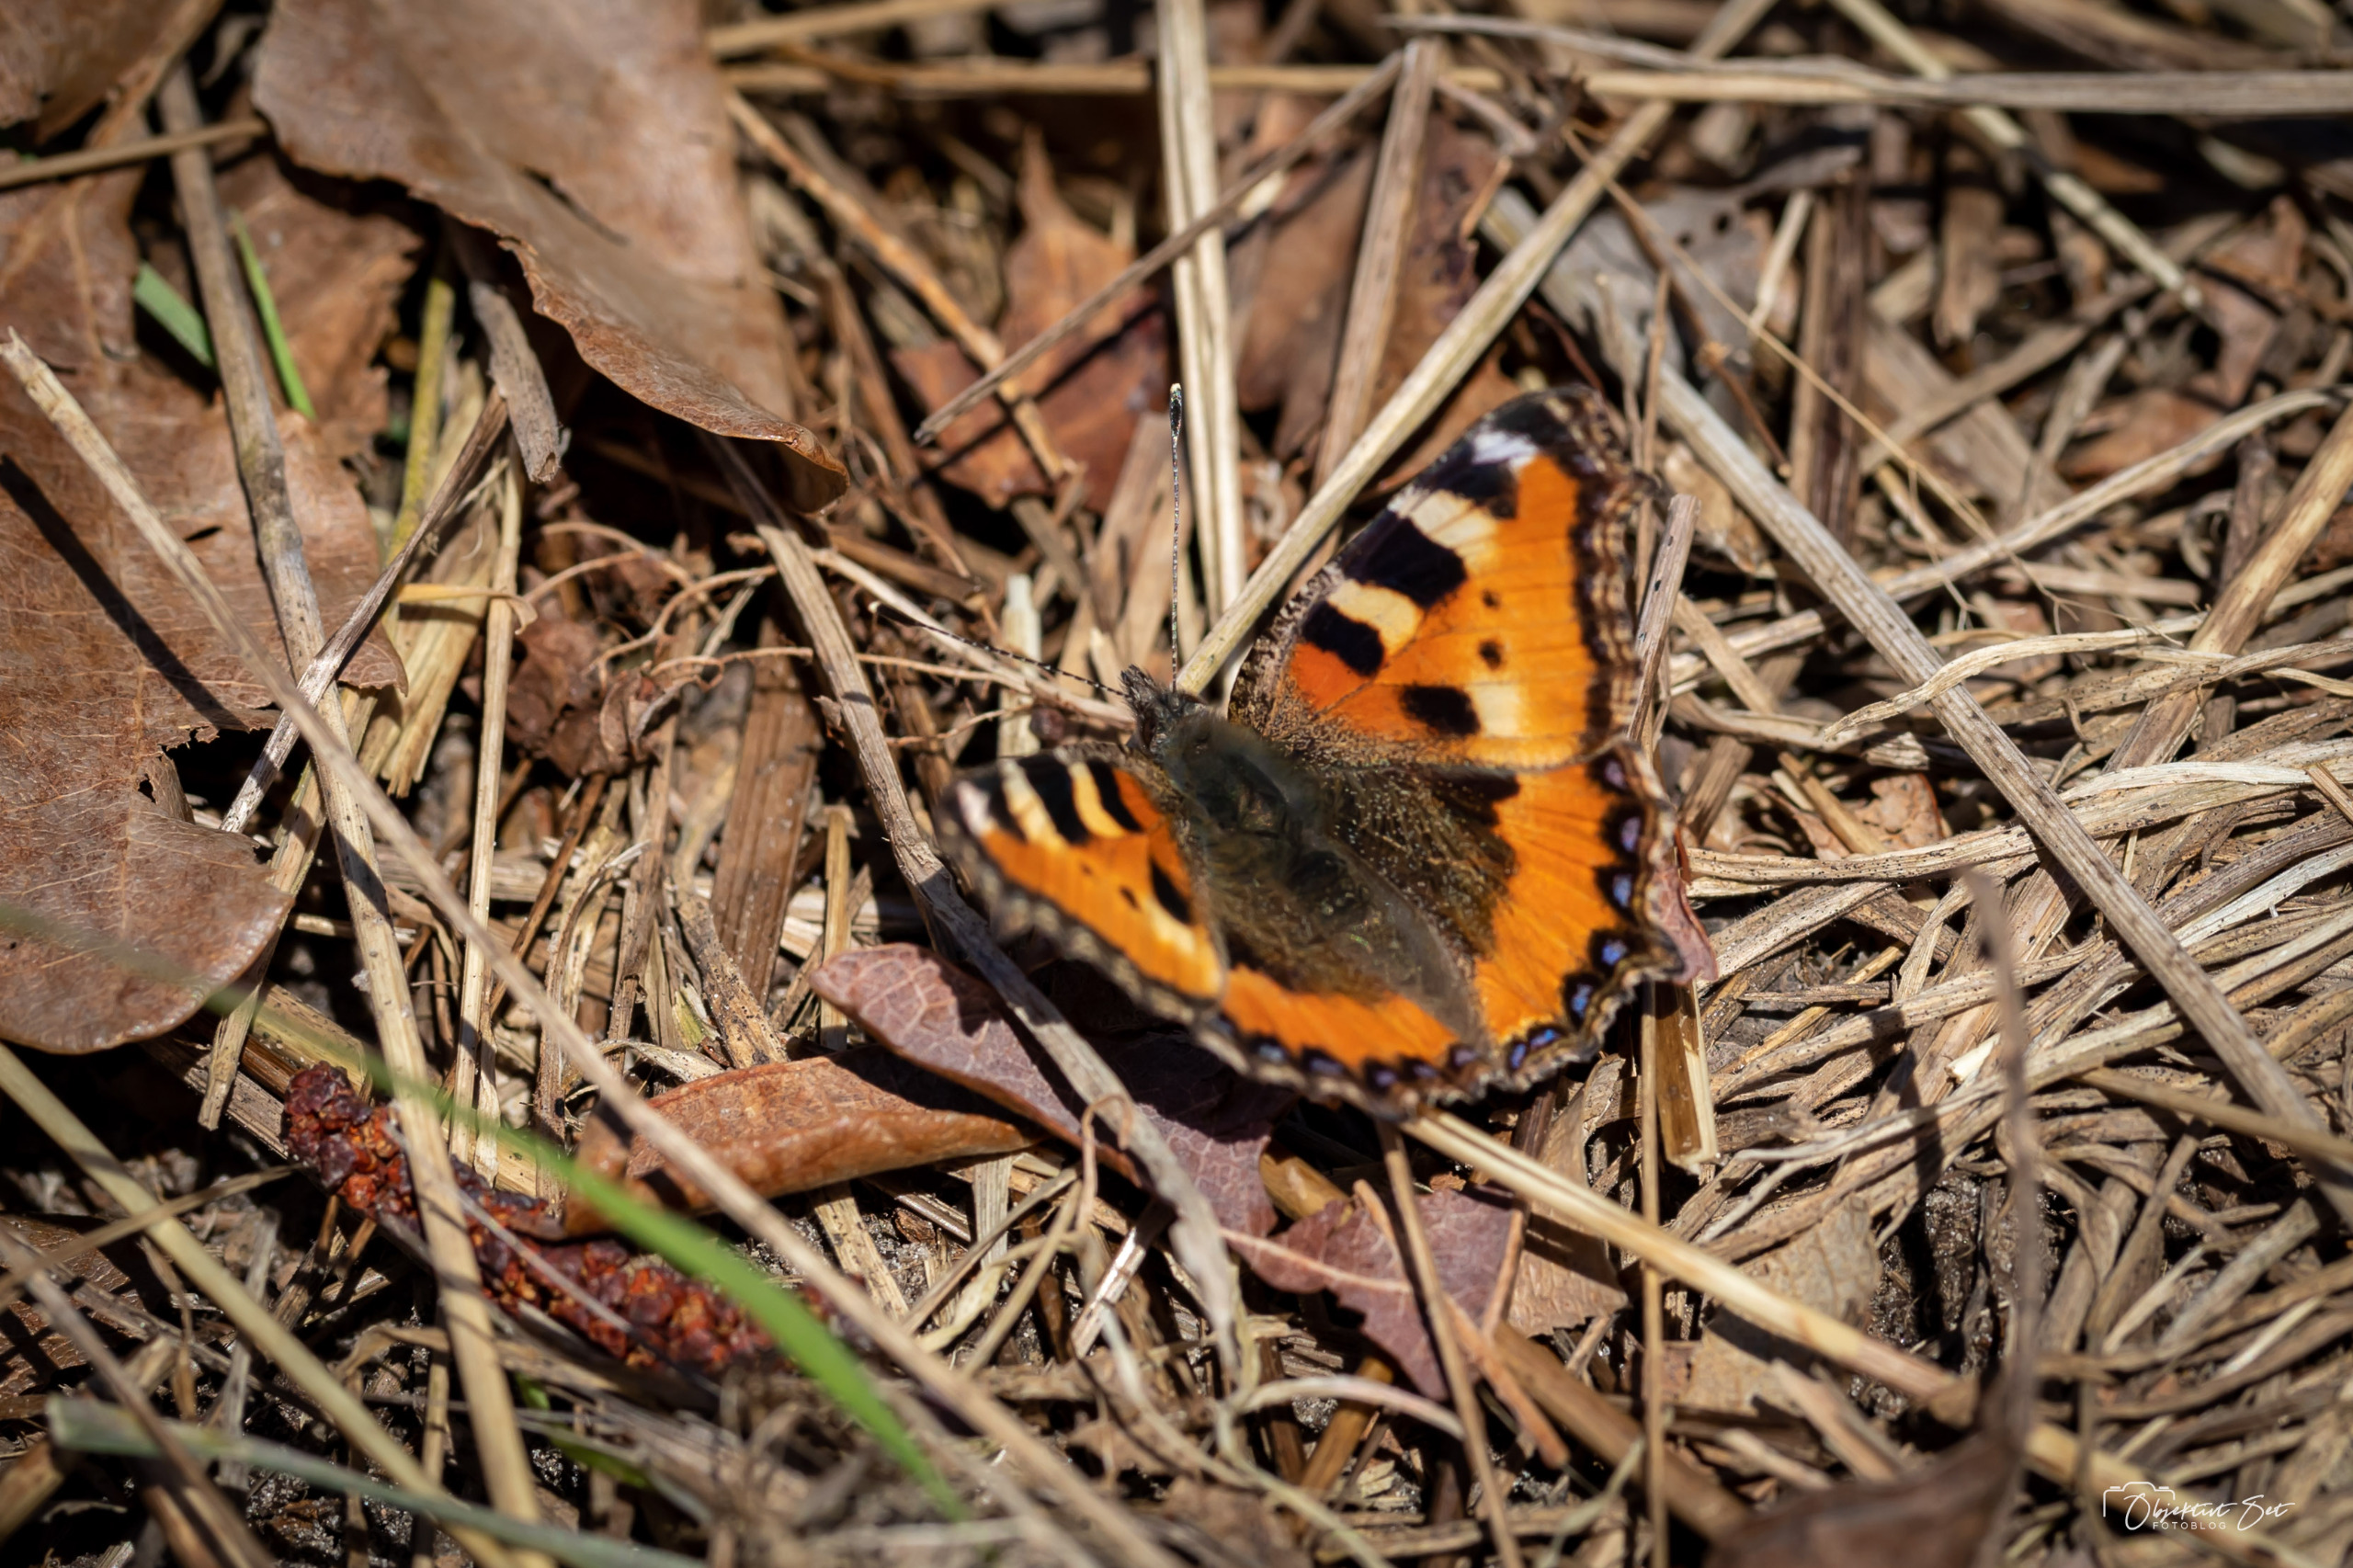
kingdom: Animalia
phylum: Arthropoda
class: Insecta
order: Lepidoptera
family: Nymphalidae
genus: Aglais
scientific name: Aglais urticae
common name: Nældens takvinge
